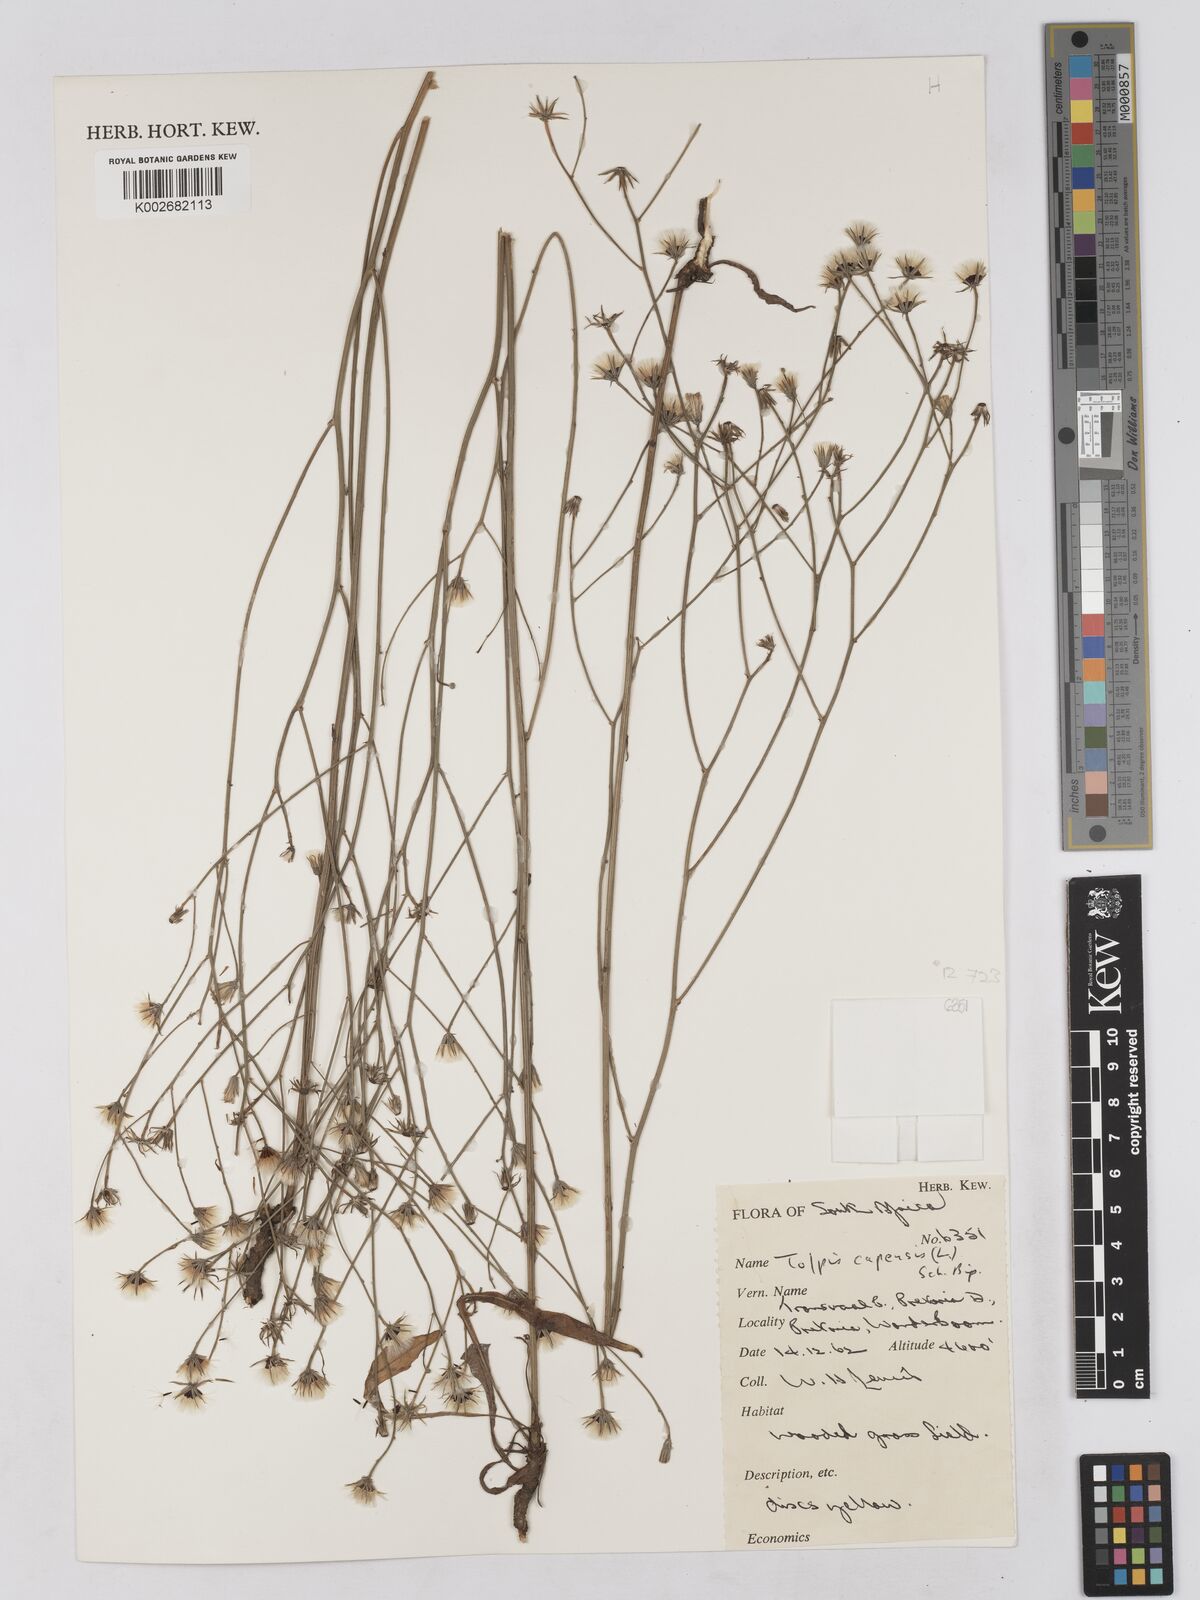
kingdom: Plantae
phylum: Tracheophyta
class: Magnoliopsida
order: Asterales
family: Asteraceae
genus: Tolpis
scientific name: Tolpis capensis
